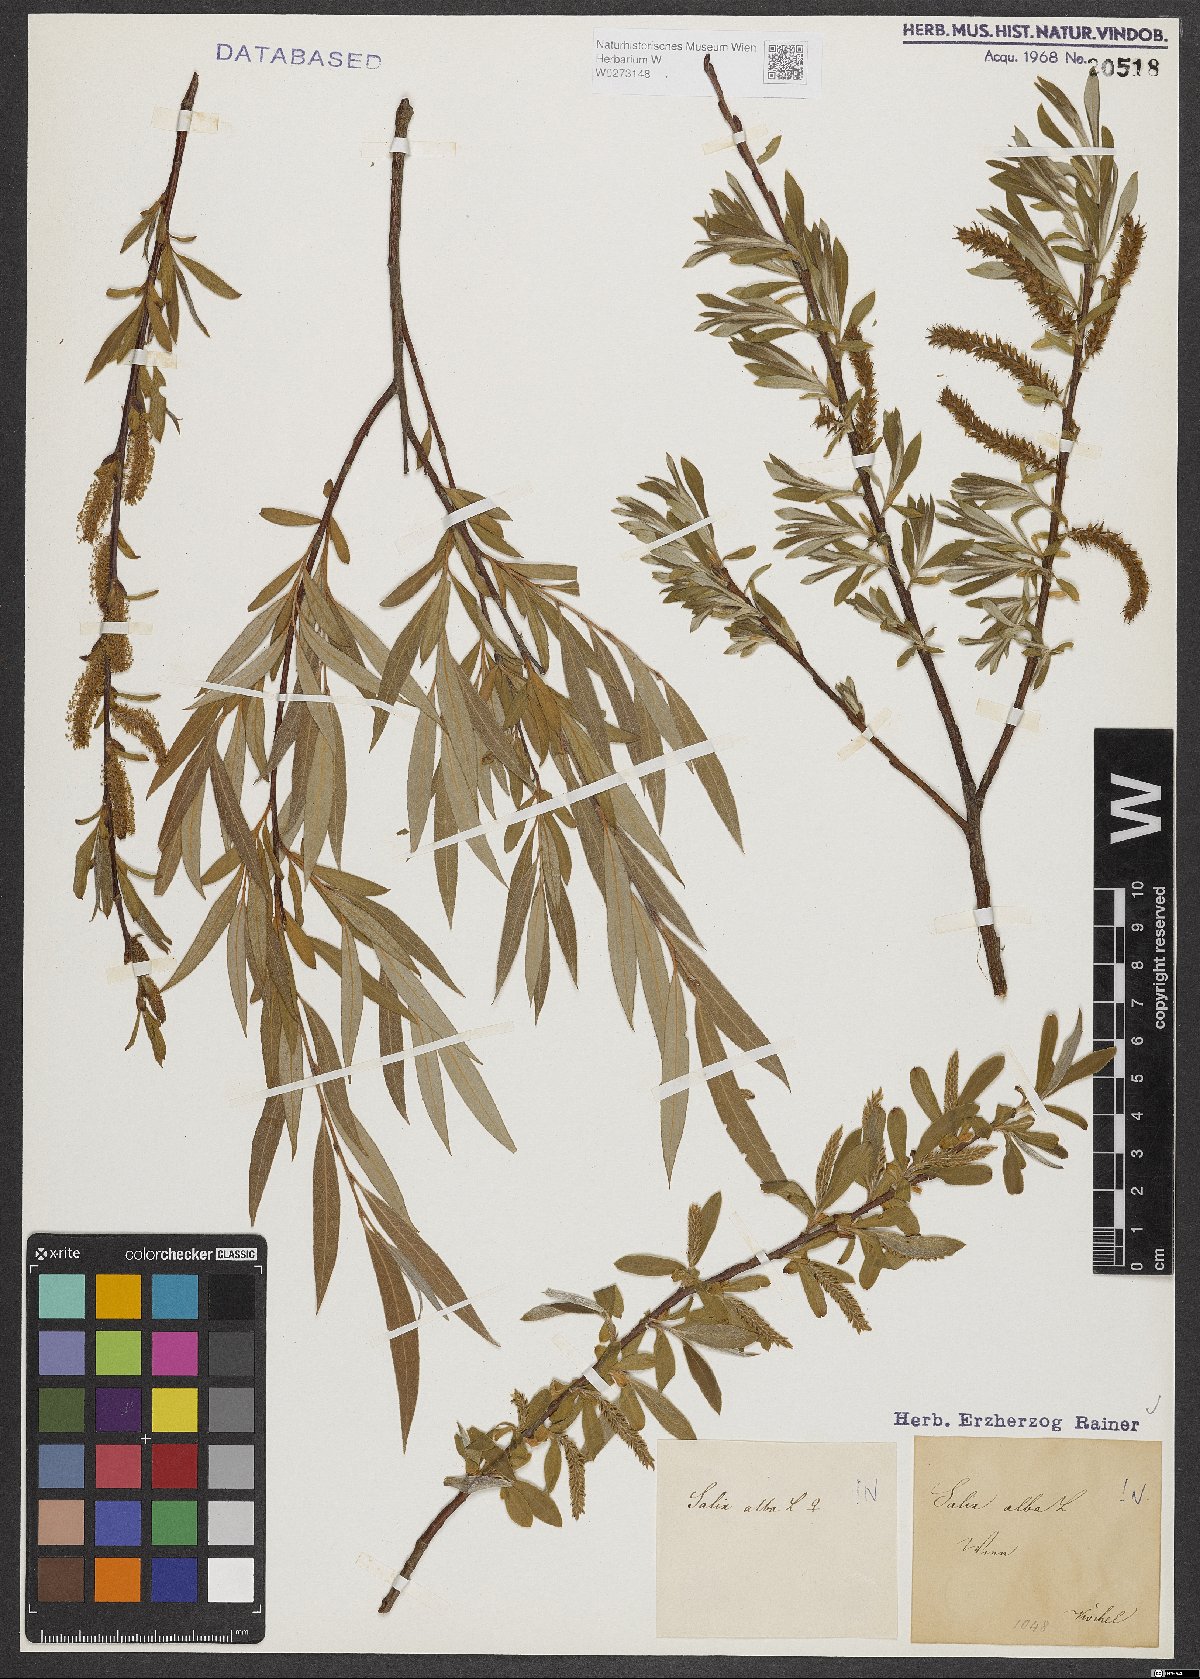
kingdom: Plantae
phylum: Tracheophyta
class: Magnoliopsida
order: Malpighiales
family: Salicaceae
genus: Salix
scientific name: Salix alba
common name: White willow
